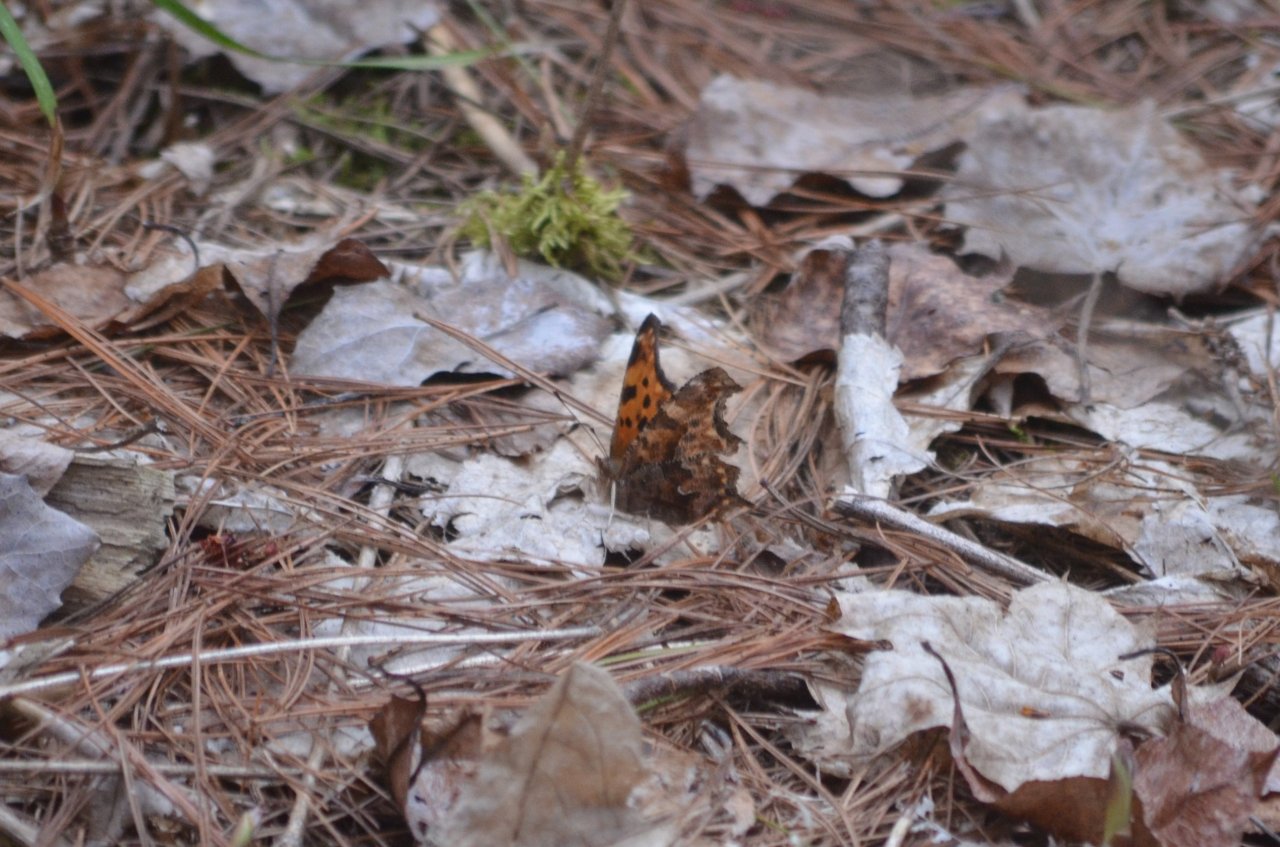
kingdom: Animalia
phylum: Arthropoda
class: Insecta
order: Lepidoptera
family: Nymphalidae
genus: Polygonia
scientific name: Polygonia comma
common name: Eastern Comma
